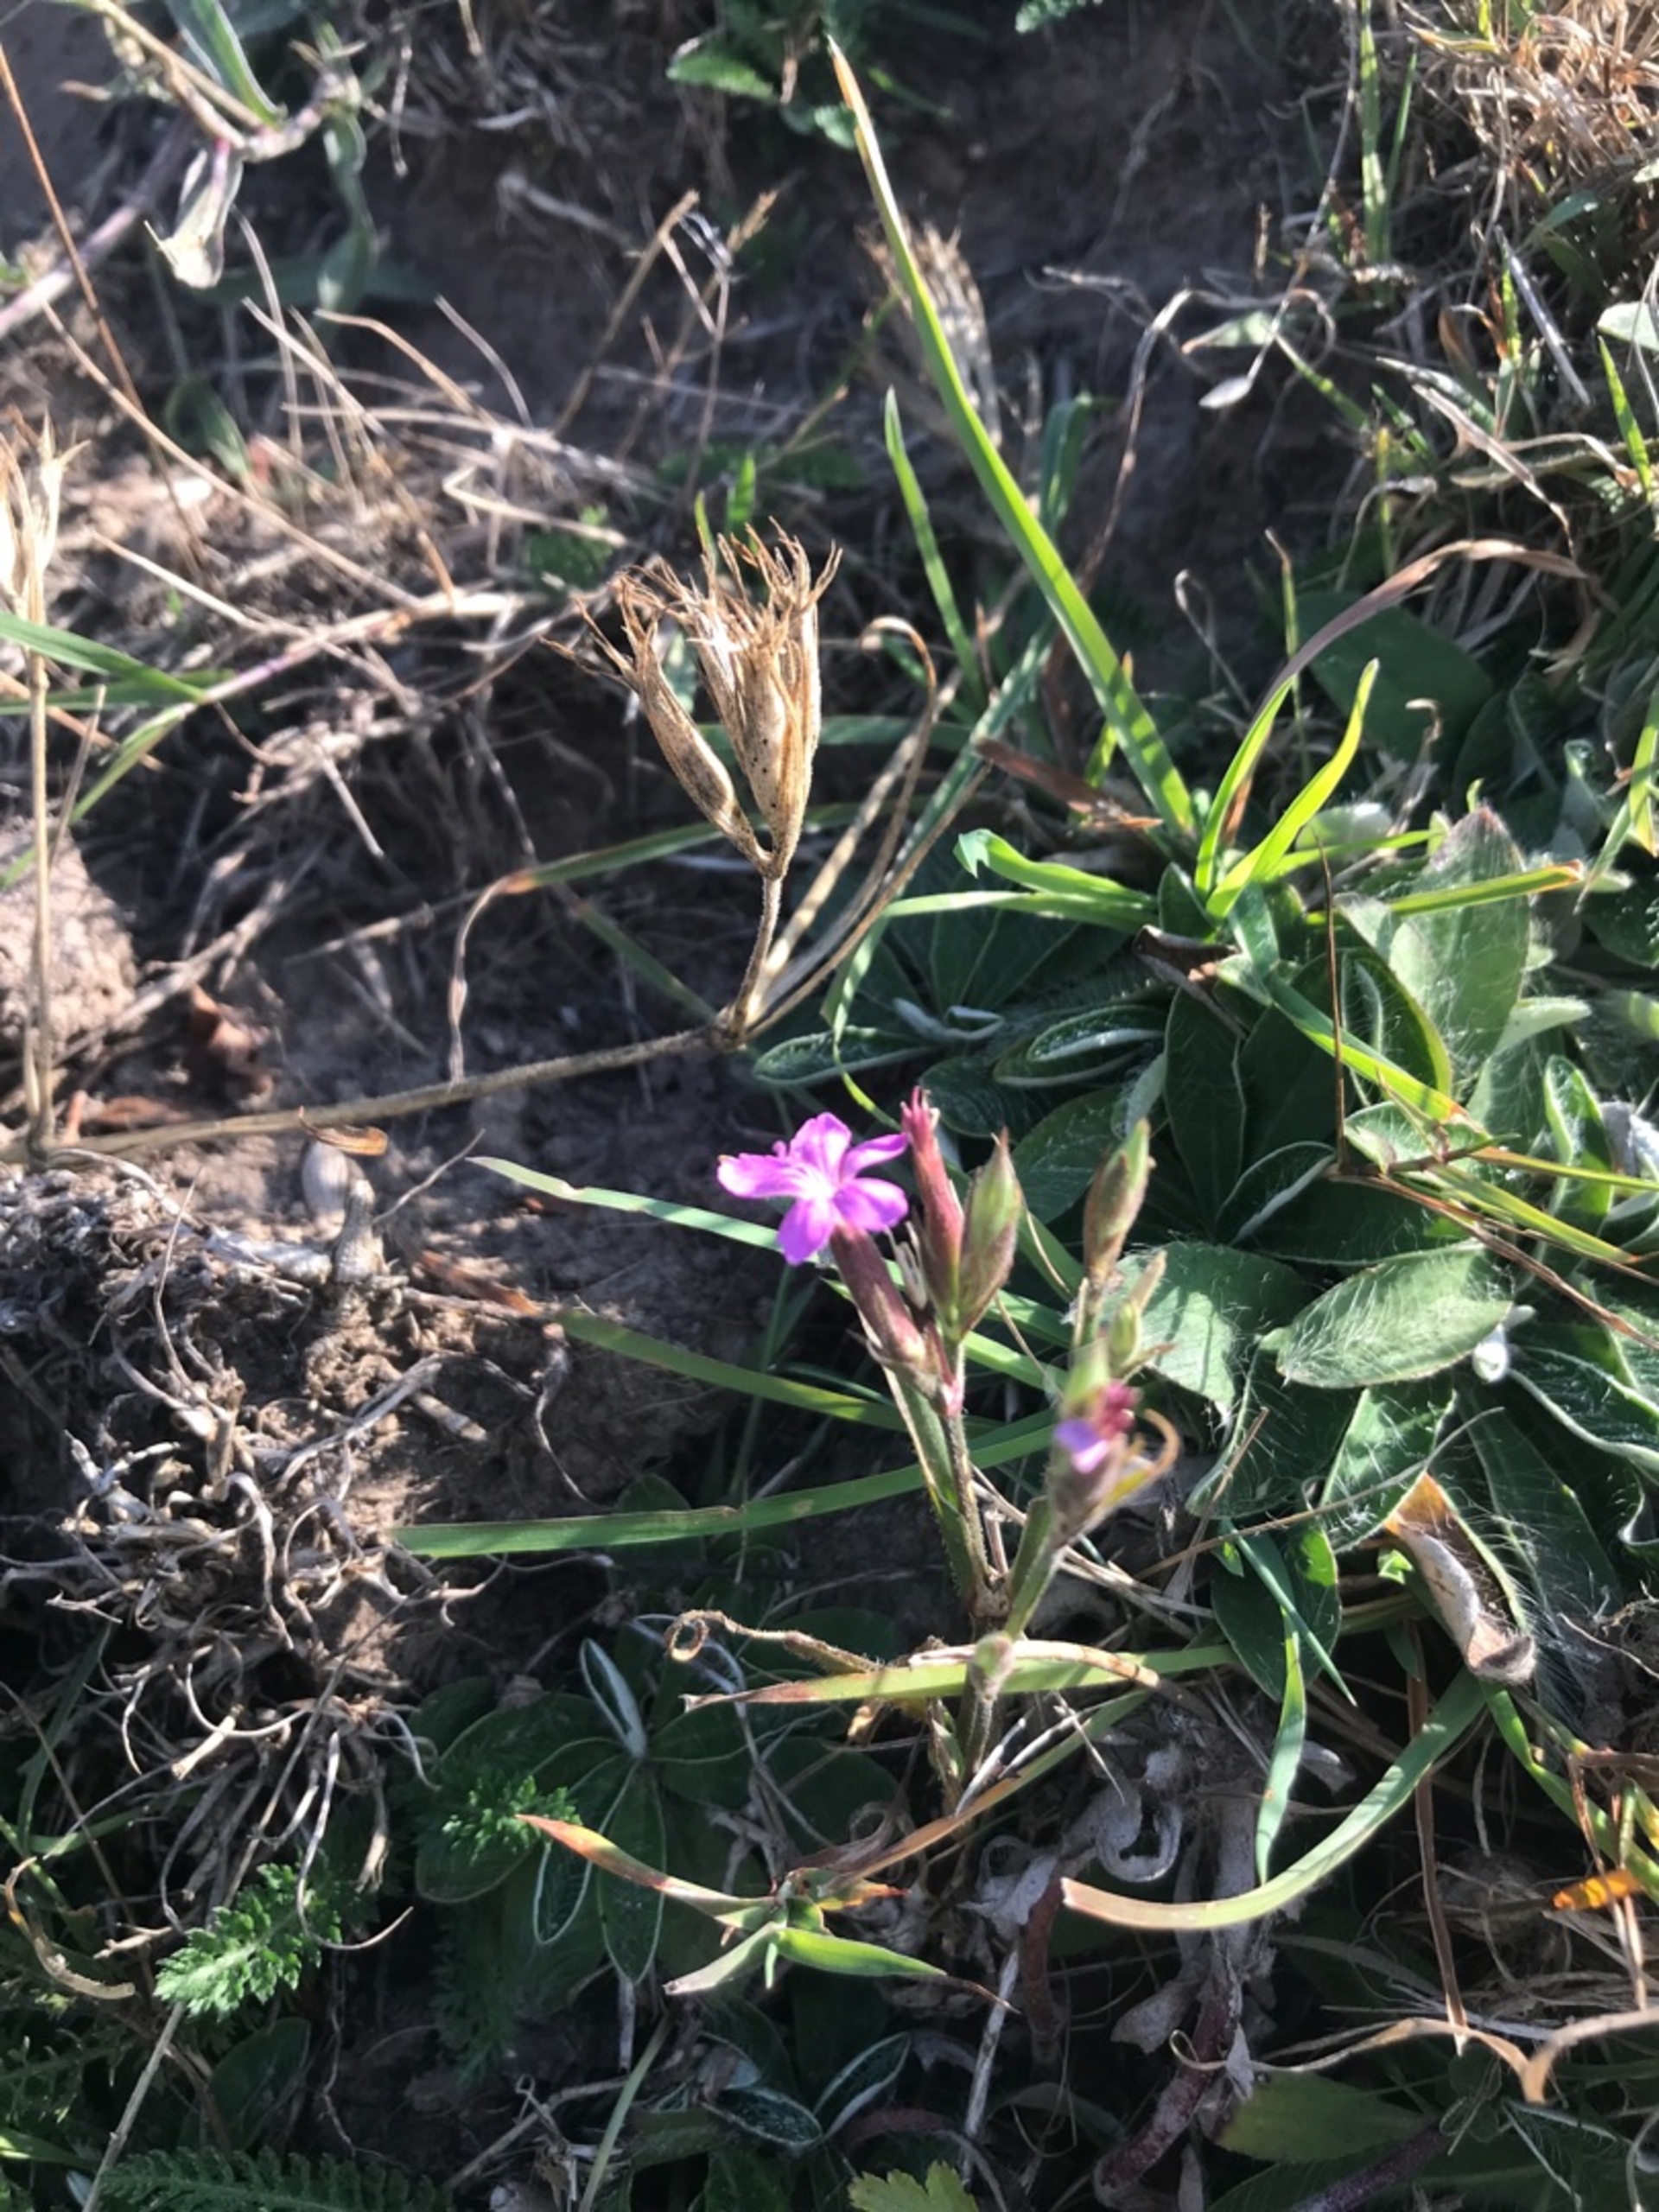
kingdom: Plantae
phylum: Tracheophyta
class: Magnoliopsida
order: Caryophyllales
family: Caryophyllaceae
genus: Dianthus
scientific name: Dianthus armeria
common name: Kost-nellike
